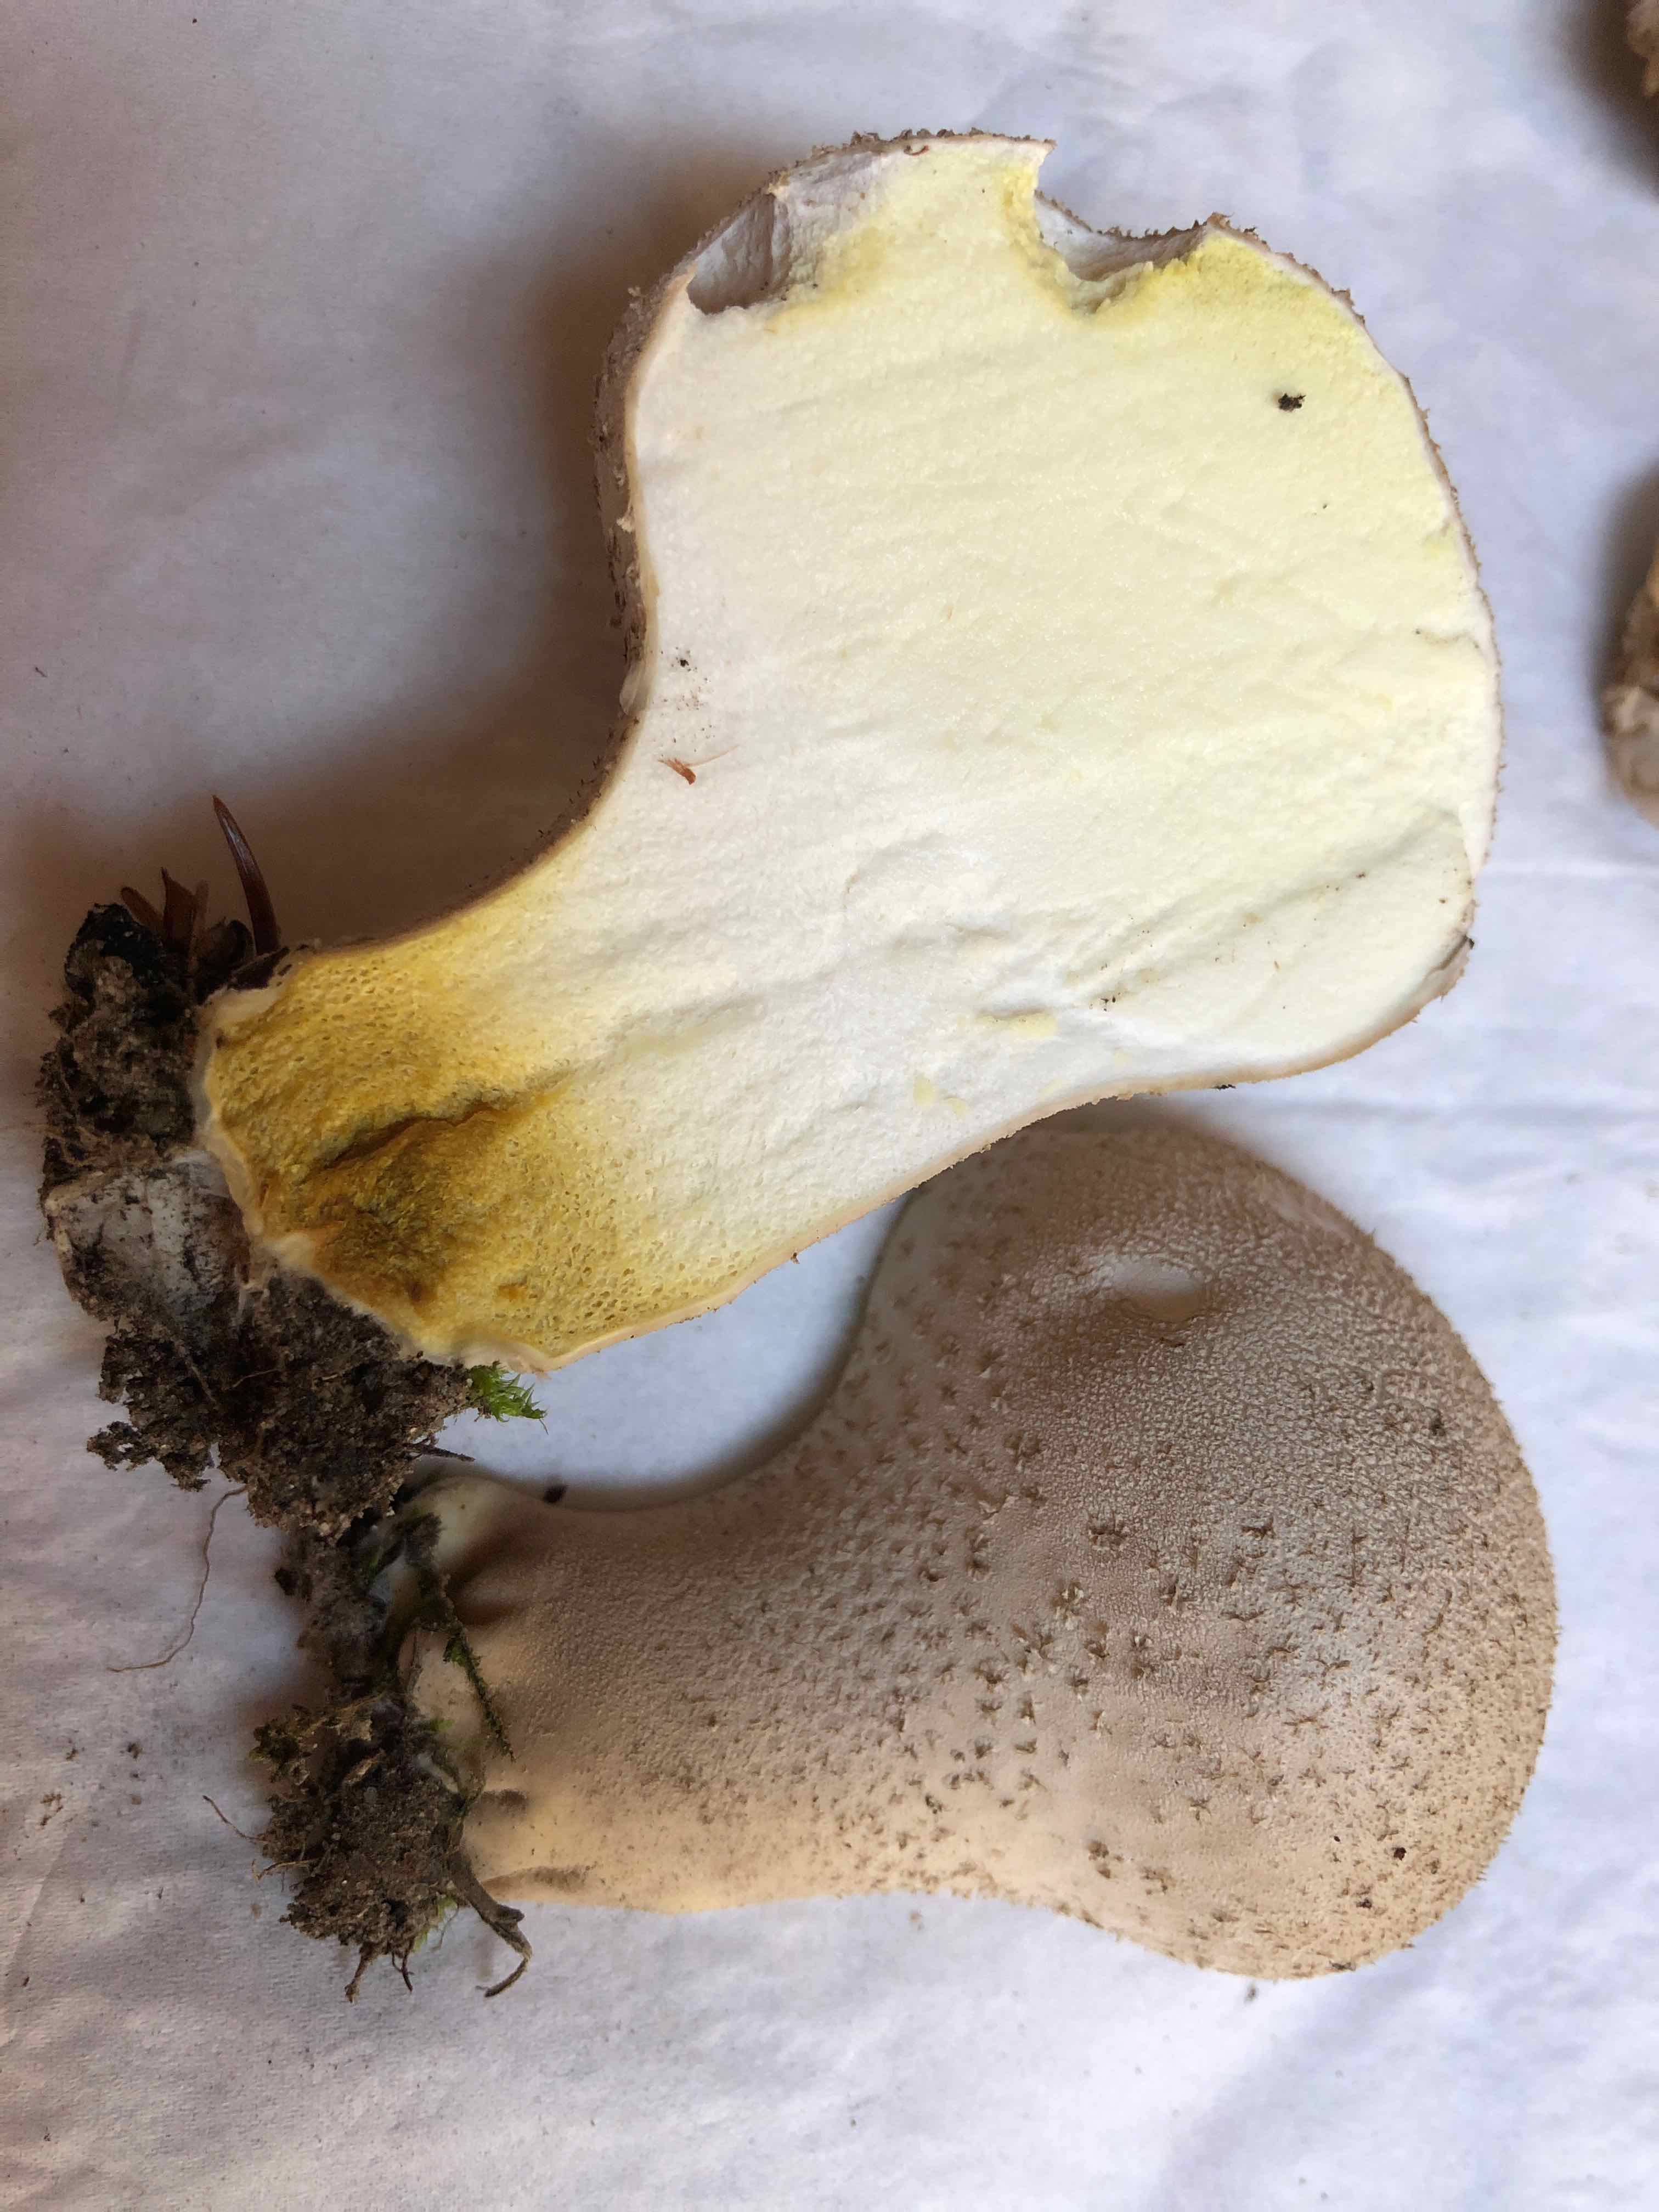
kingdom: Fungi
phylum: Basidiomycota
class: Agaricomycetes
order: Agaricales
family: Lycoperdaceae
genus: Lycoperdon
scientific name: Lycoperdon excipuliforme
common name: højstokket støvbold
